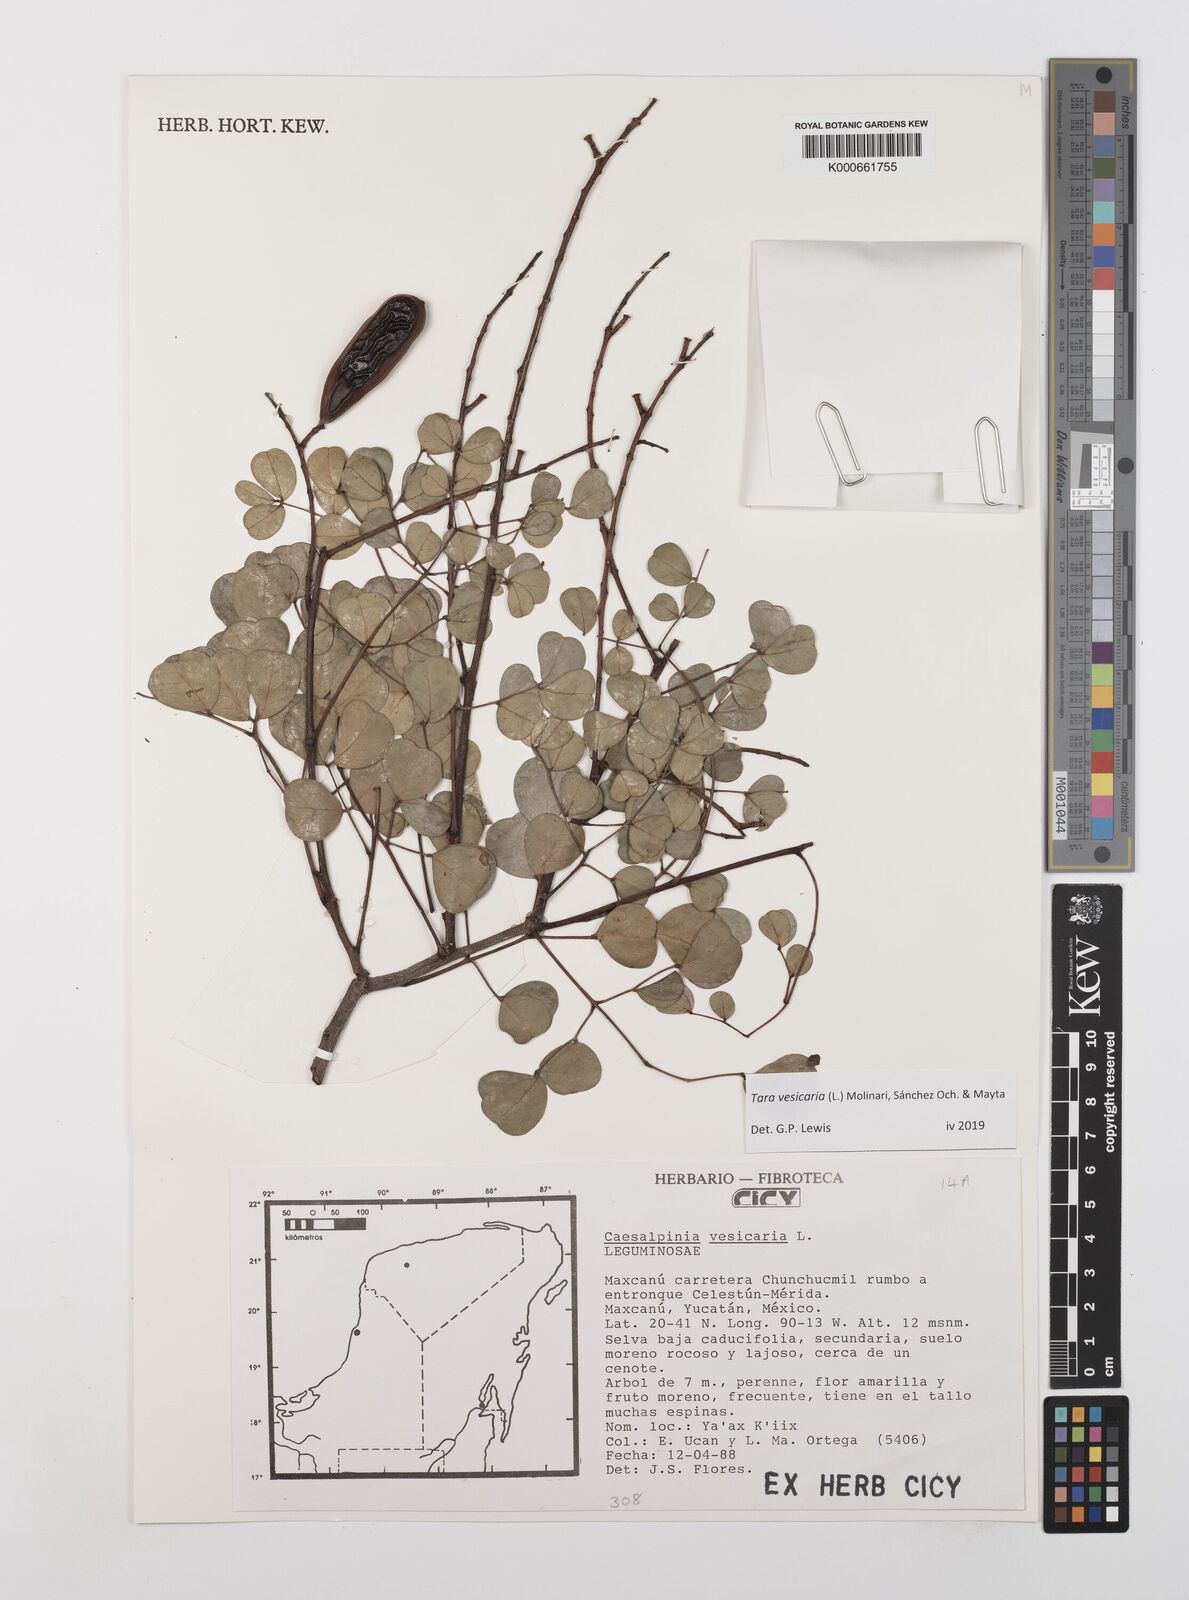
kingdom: Plantae
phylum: Tracheophyta
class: Magnoliopsida
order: Fabales
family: Fabaceae
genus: Tara
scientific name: Tara vesicaria
